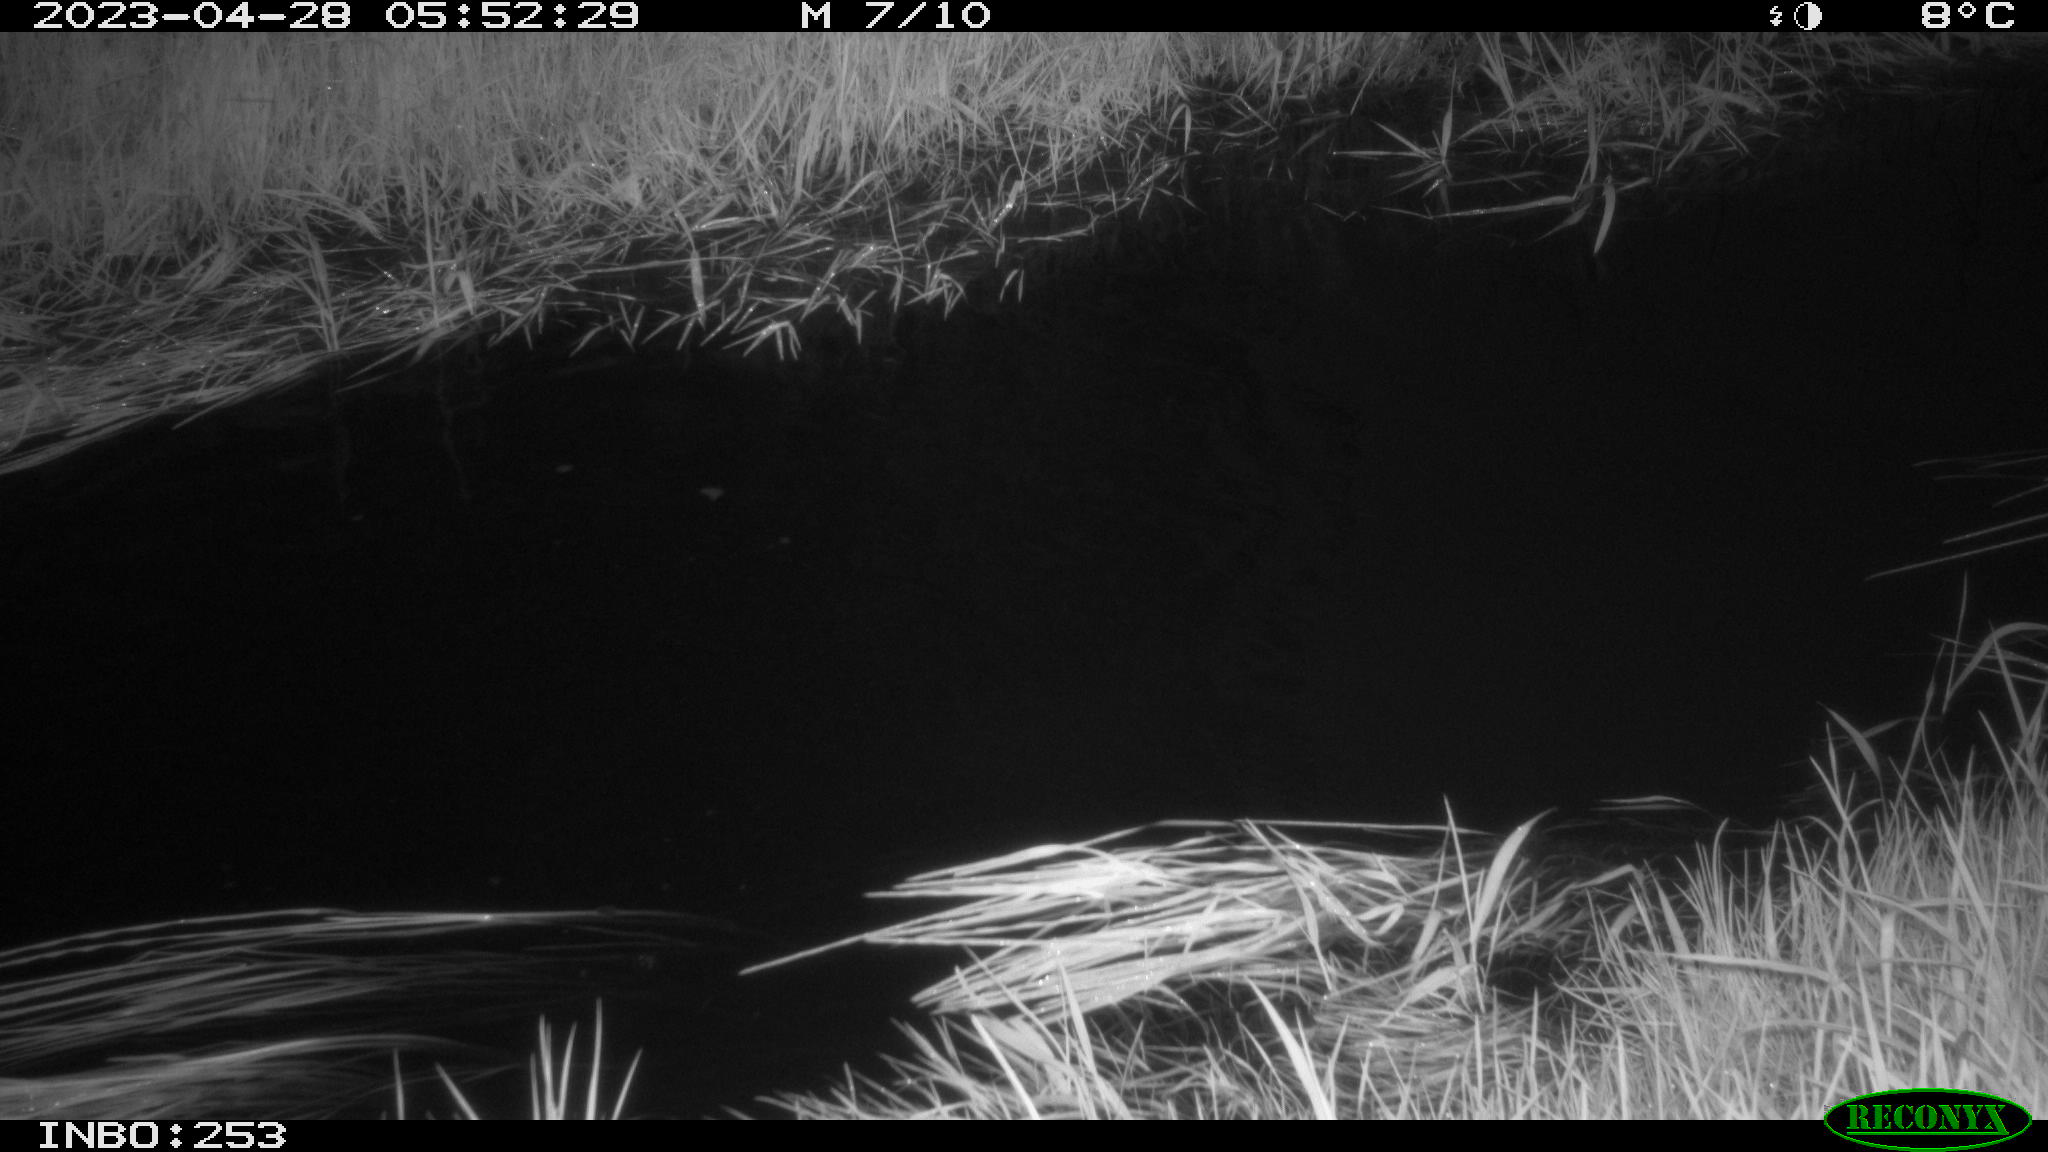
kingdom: Animalia
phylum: Chordata
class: Aves
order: Anseriformes
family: Anatidae
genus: Anas
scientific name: Anas
